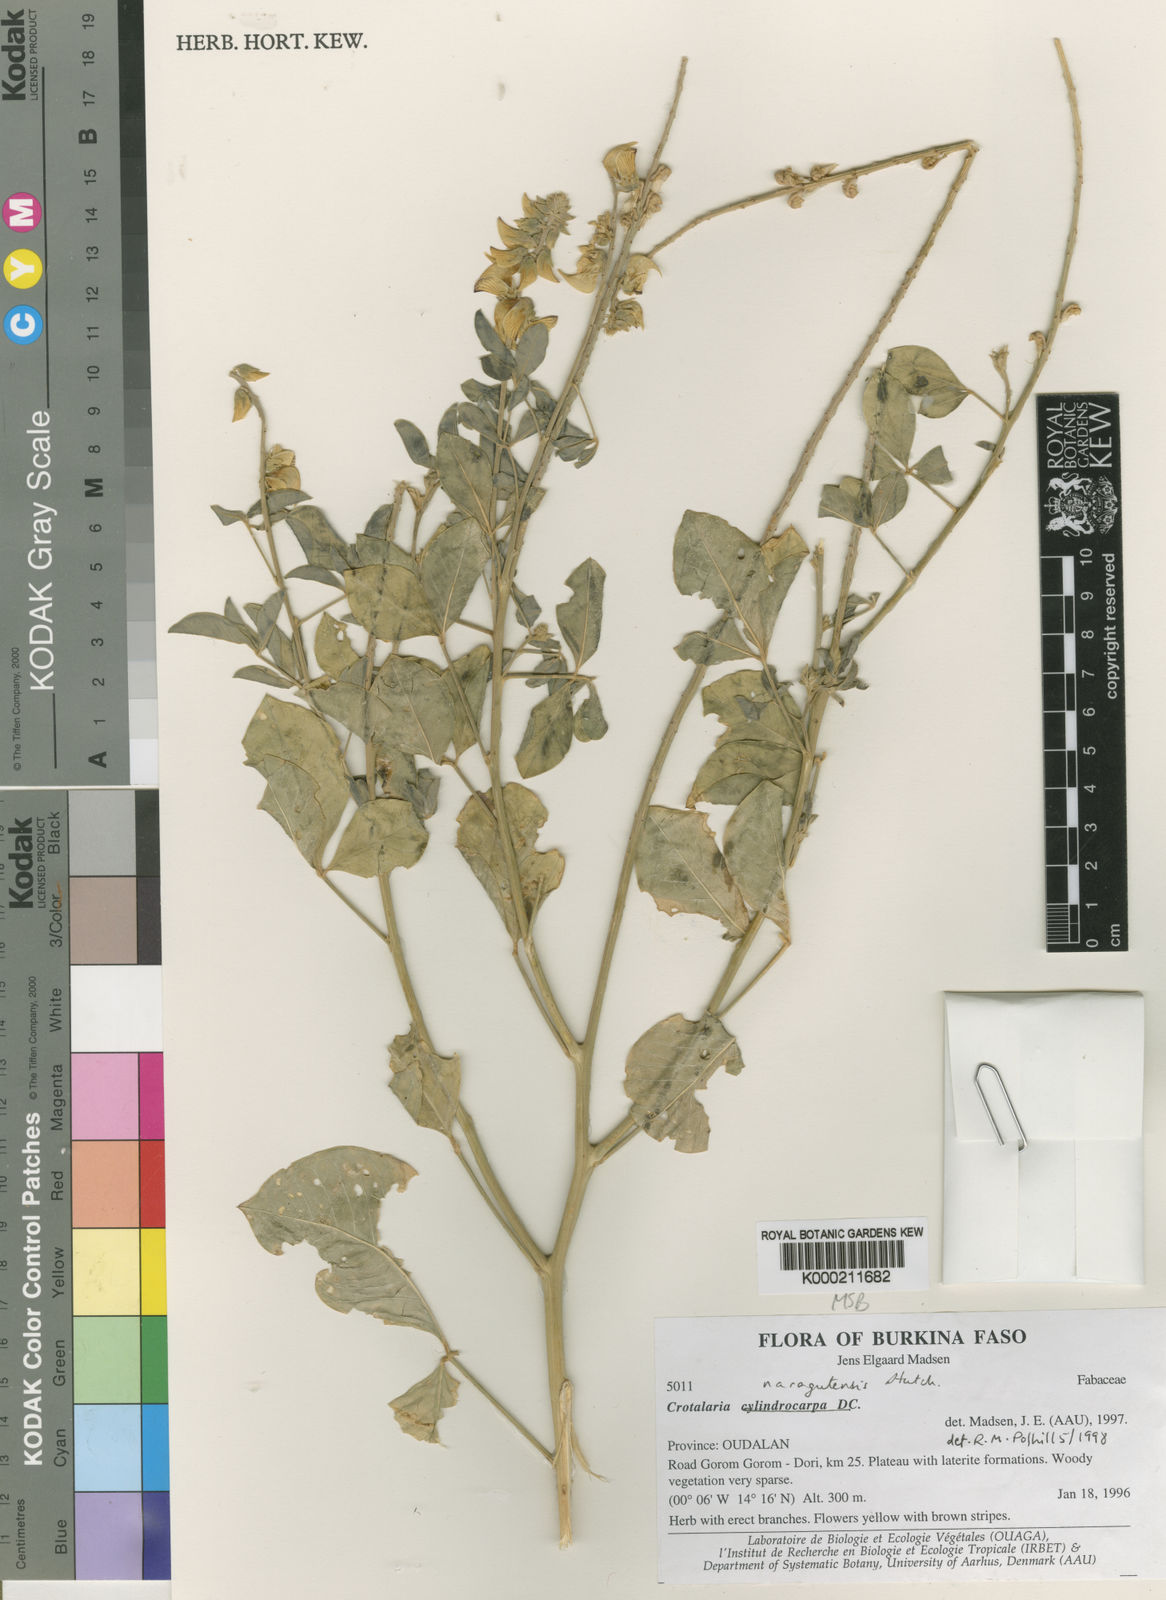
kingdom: Plantae
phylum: Tracheophyta
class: Magnoliopsida
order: Fabales
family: Fabaceae
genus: Crotalaria
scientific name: Crotalaria naragutensis
